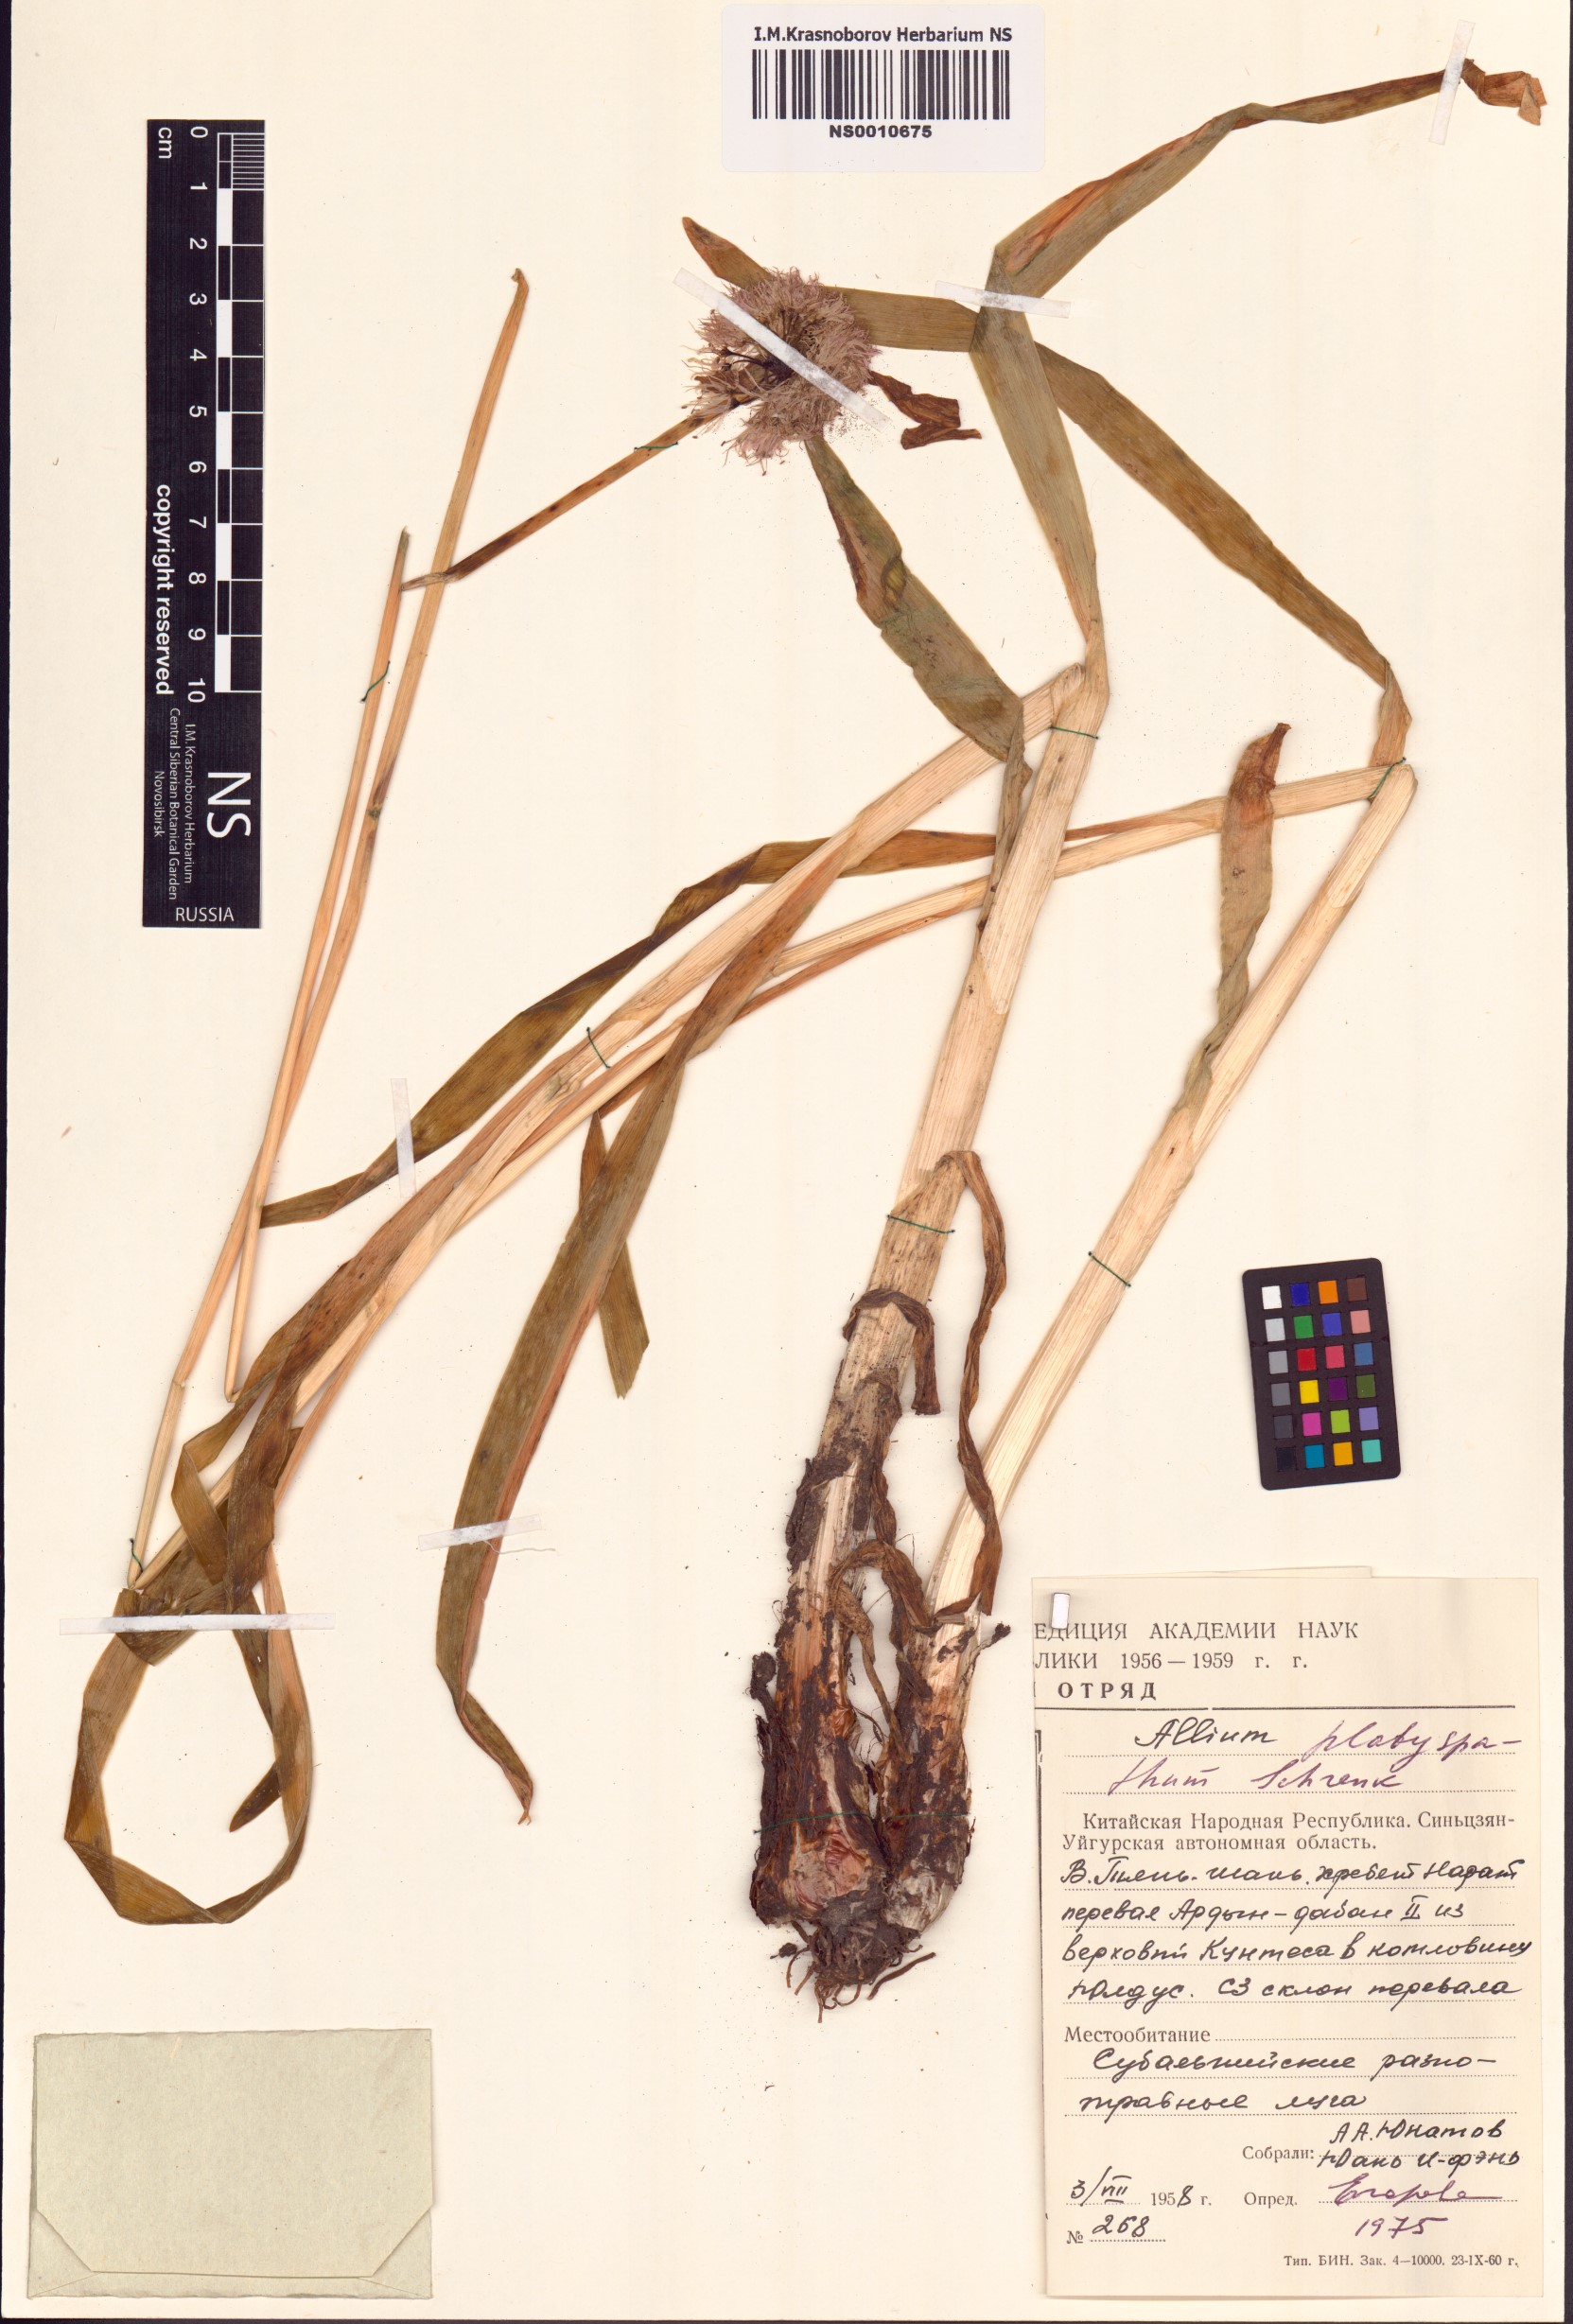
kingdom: Plantae
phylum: Tracheophyta
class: Liliopsida
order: Asparagales
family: Amaryllidaceae
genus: Allium
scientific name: Allium platyspathum
